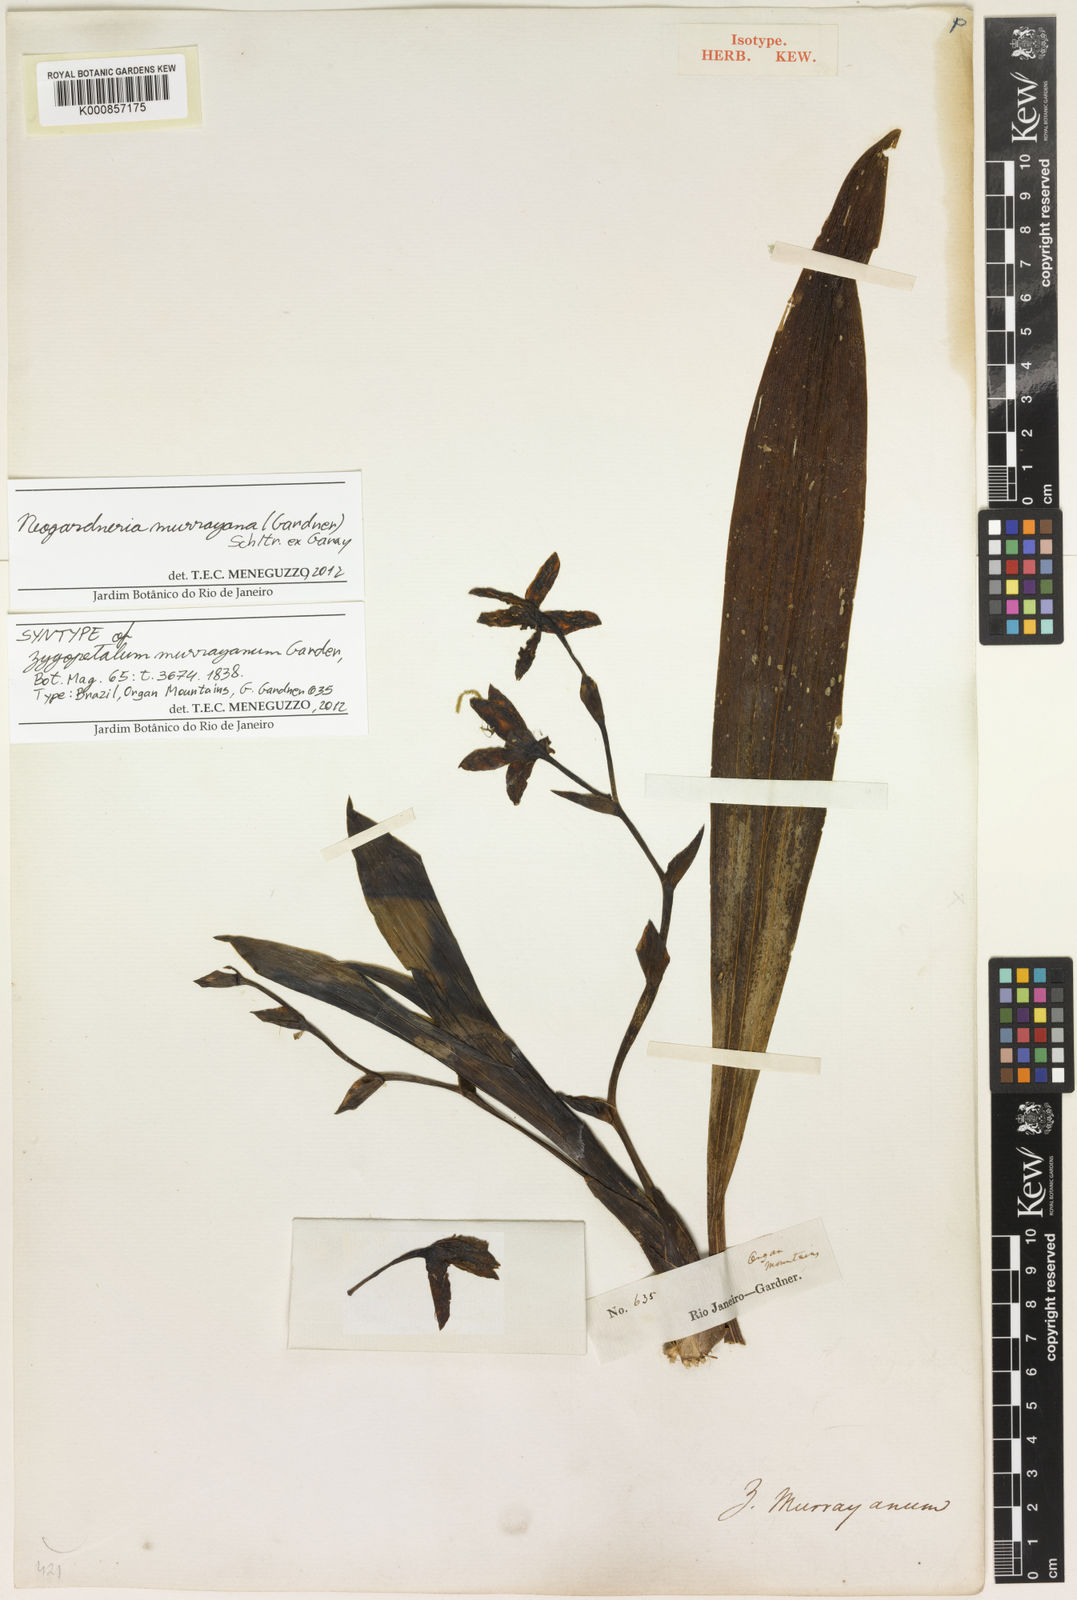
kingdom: Plantae
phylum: Tracheophyta
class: Liliopsida
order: Asparagales
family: Orchidaceae
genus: Neogardneria
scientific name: Neogardneria murrayana
